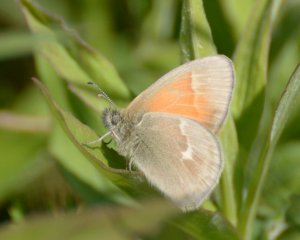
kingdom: Animalia
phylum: Arthropoda
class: Insecta
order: Lepidoptera
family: Nymphalidae
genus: Coenonympha
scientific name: Coenonympha tullia
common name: Large Heath
